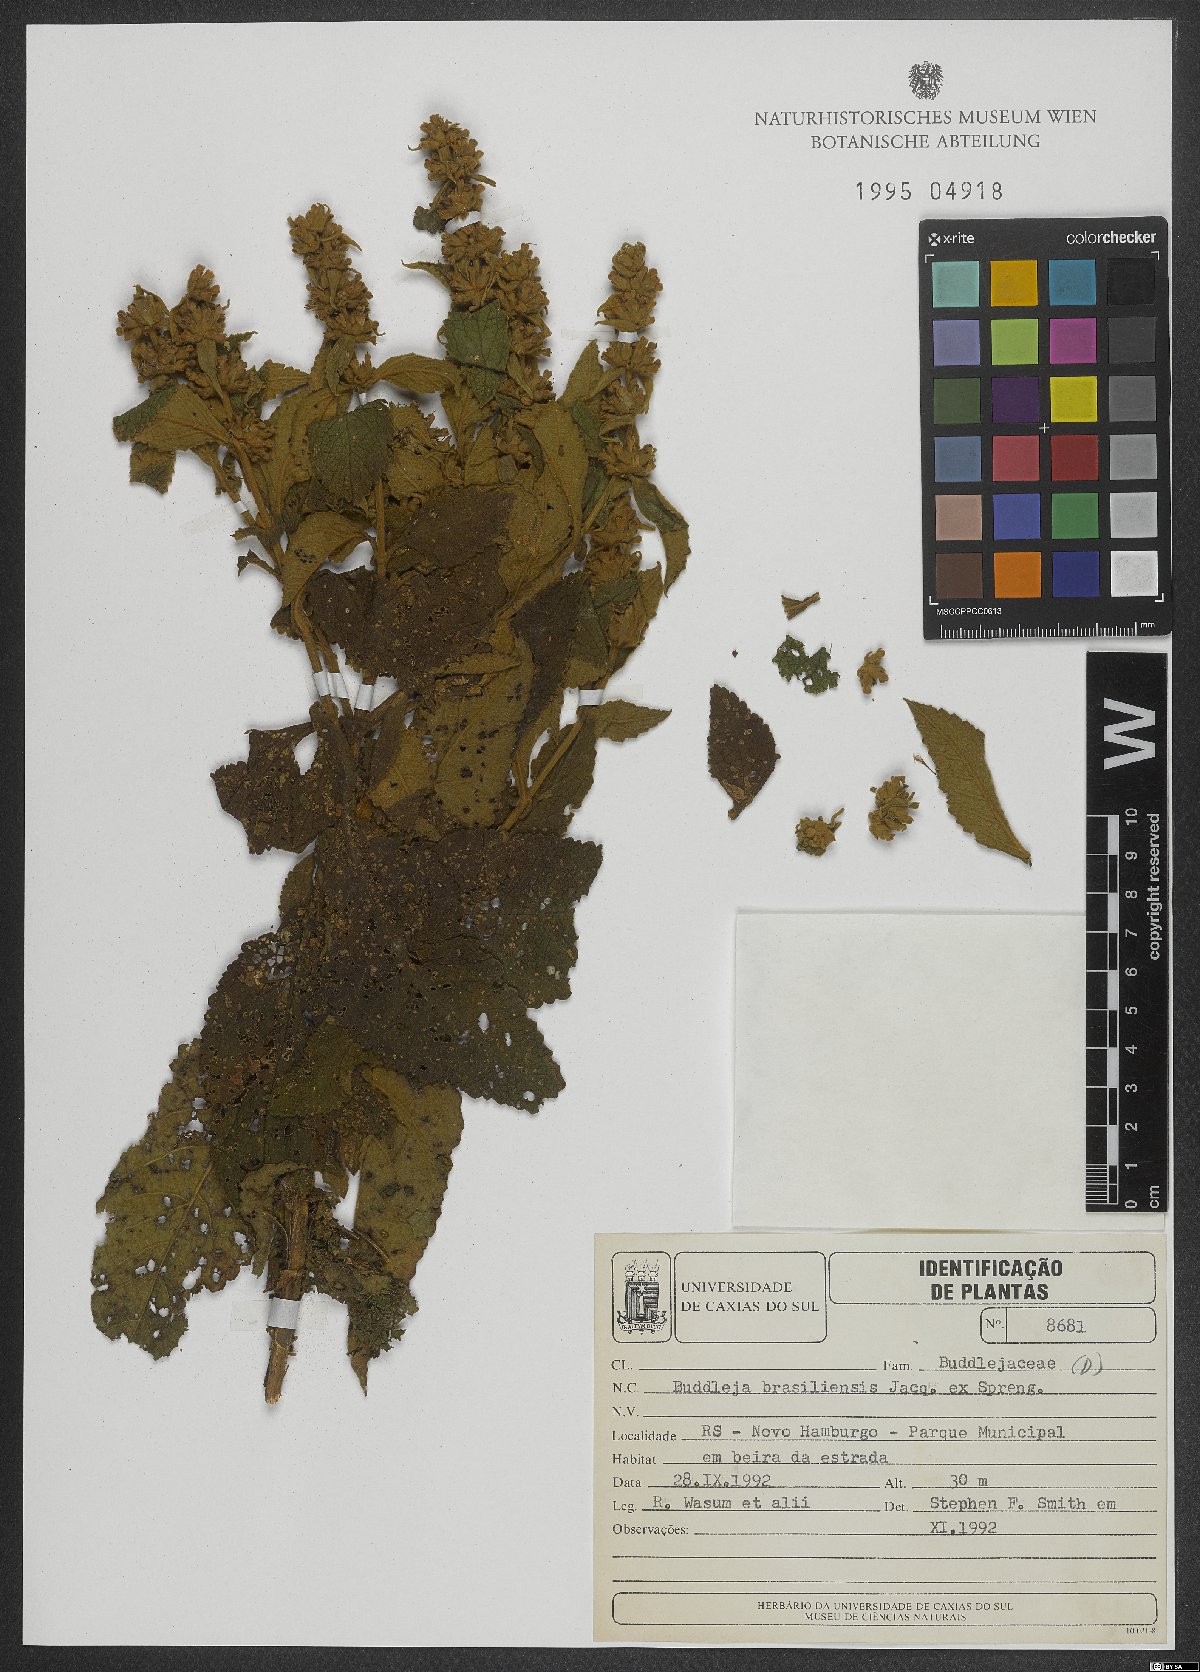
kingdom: Plantae
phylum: Tracheophyta
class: Magnoliopsida
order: Lamiales
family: Scrophulariaceae
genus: Buddleja
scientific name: Buddleja stachyoides
